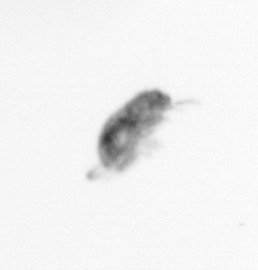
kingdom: Animalia
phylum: Arthropoda
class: Copepoda
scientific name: Copepoda
